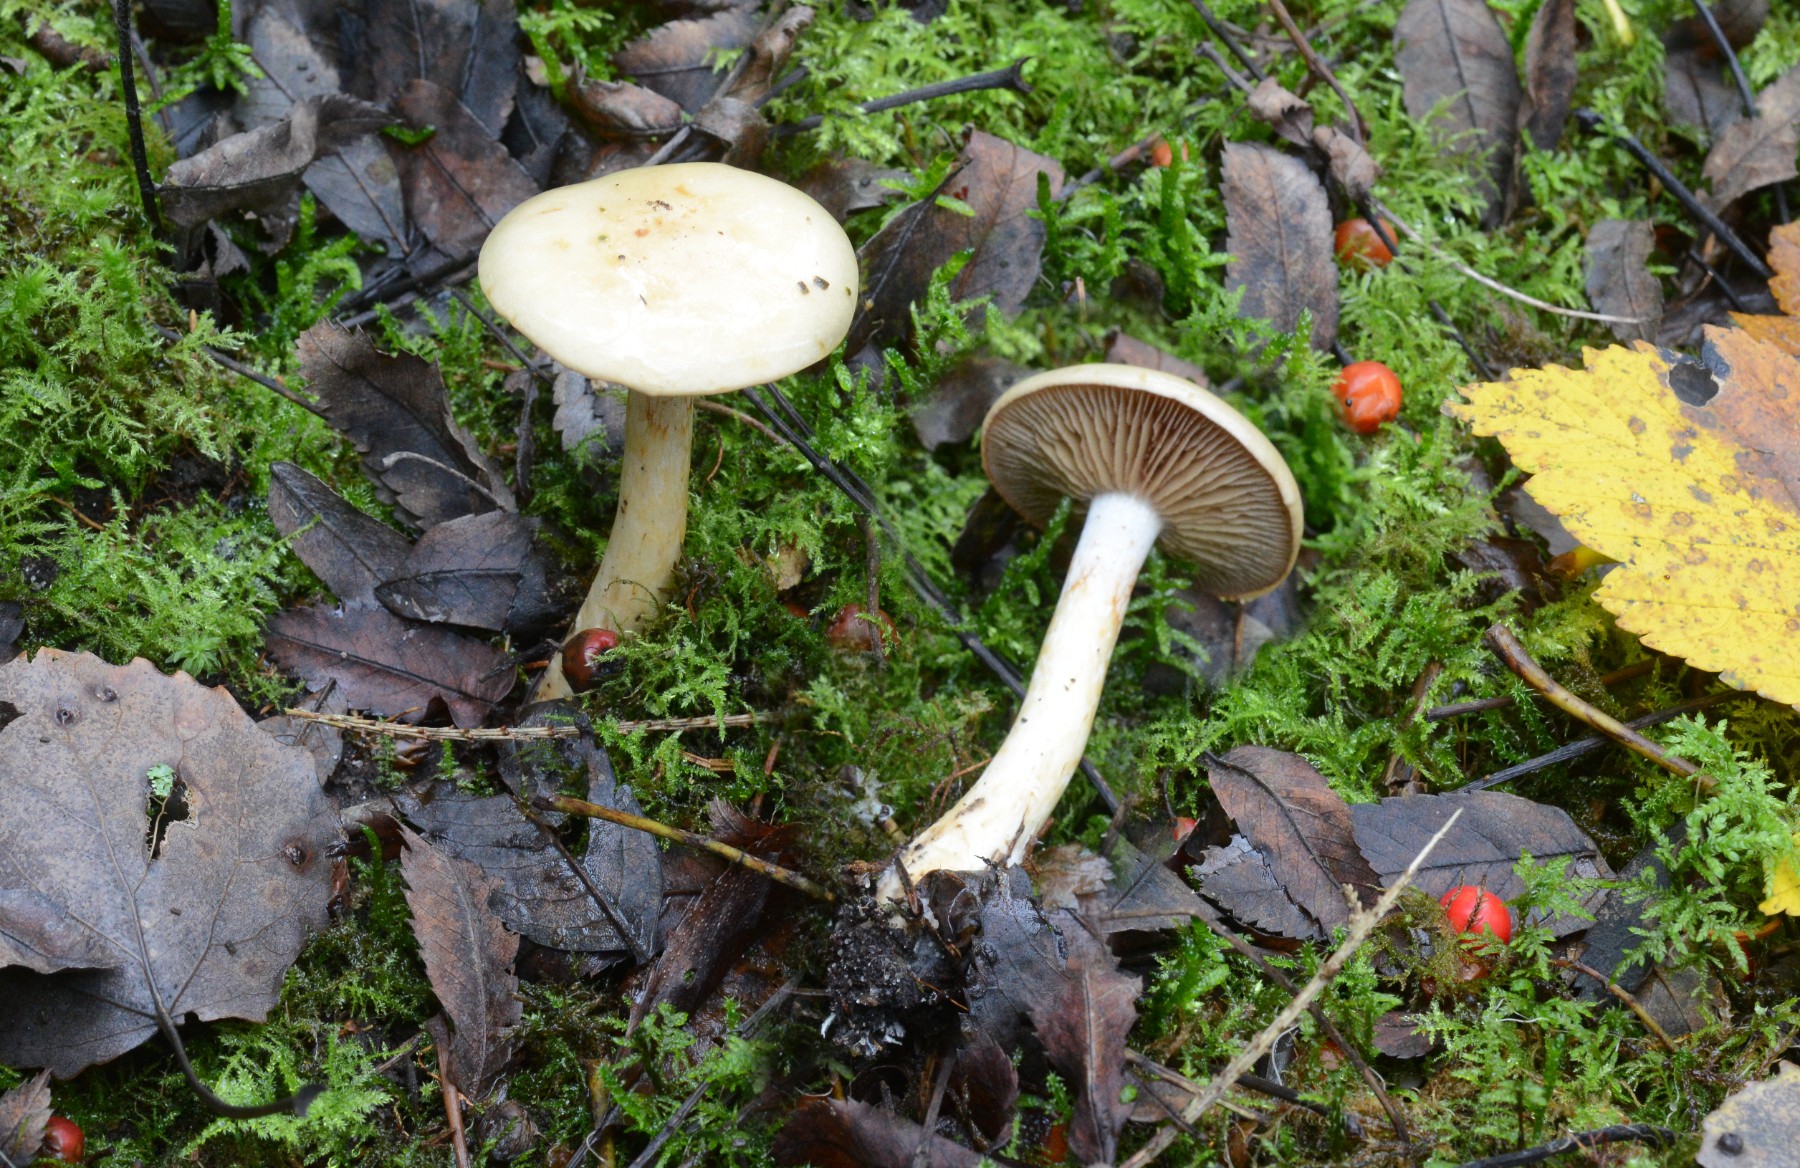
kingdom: Fungi
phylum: Basidiomycota
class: Agaricomycetes
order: Agaricales
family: Cortinariaceae
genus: Cortinarius
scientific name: Cortinarius delibutus
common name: gul slørhat
